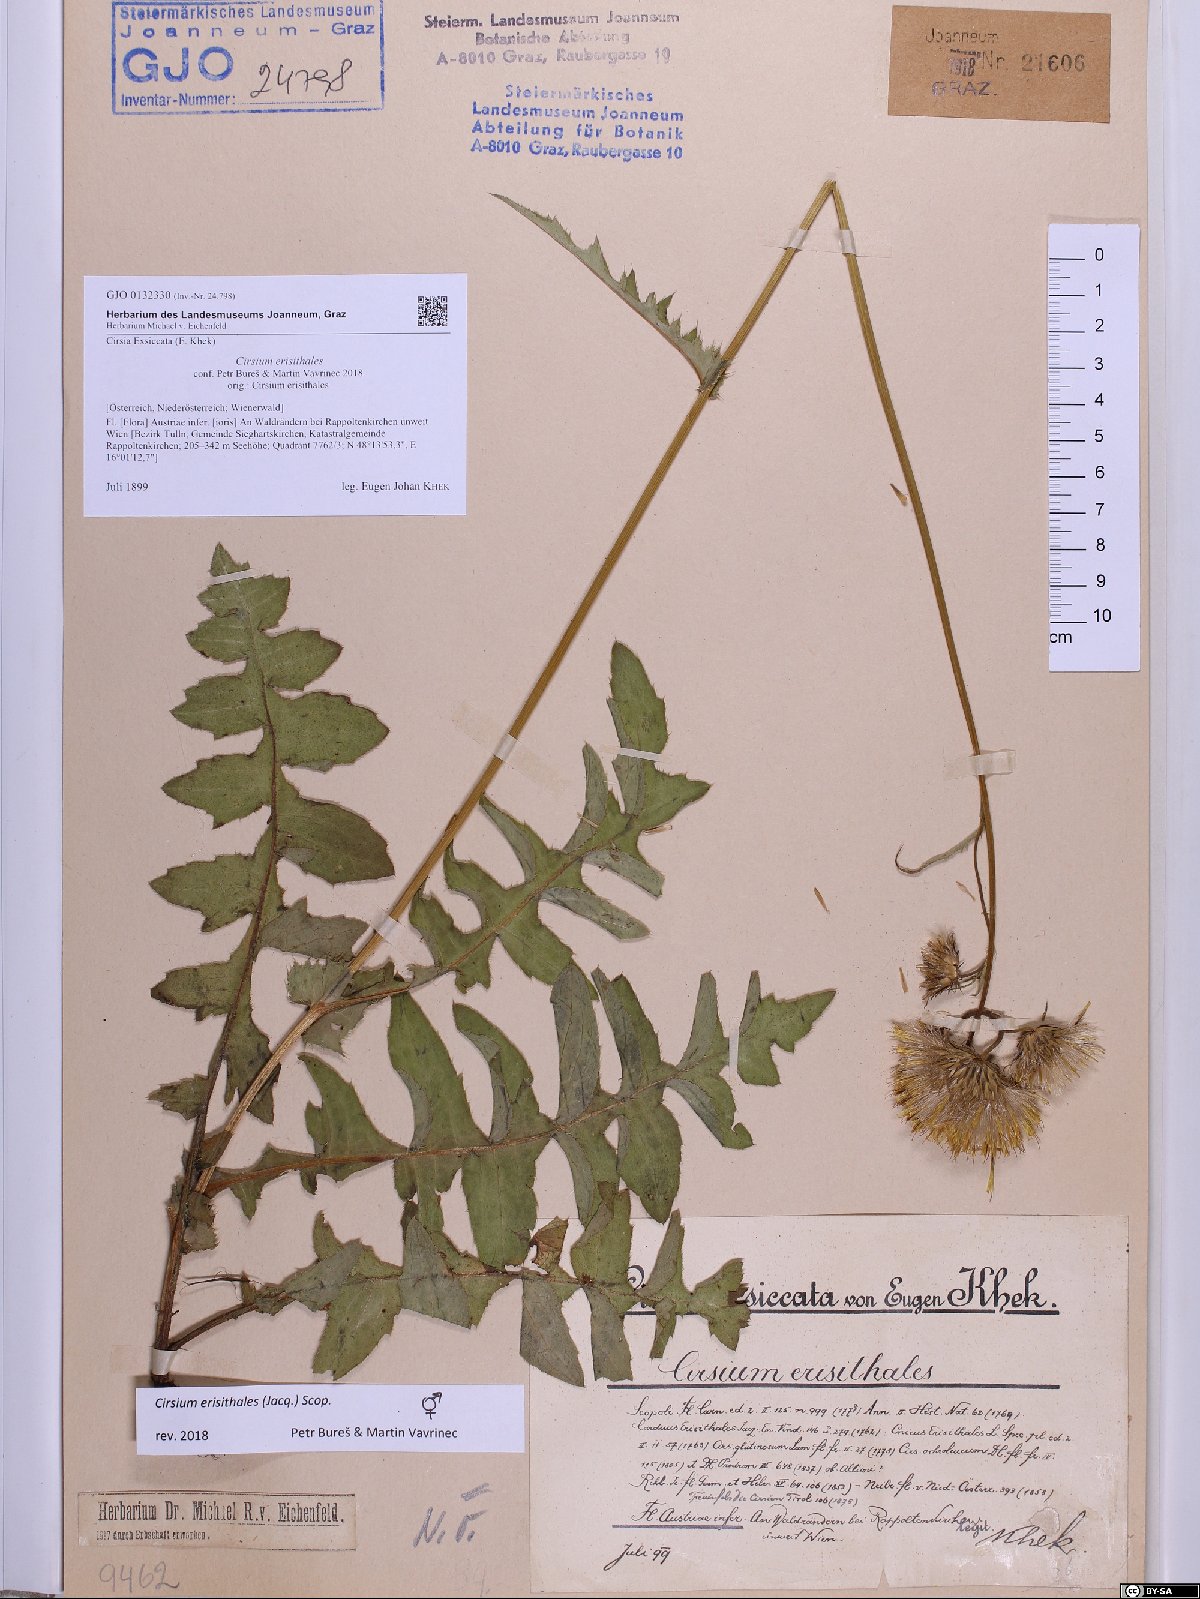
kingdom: Plantae
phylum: Tracheophyta
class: Magnoliopsida
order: Asterales
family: Asteraceae
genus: Cirsium
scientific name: Cirsium erisithales
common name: Yellow thistle
